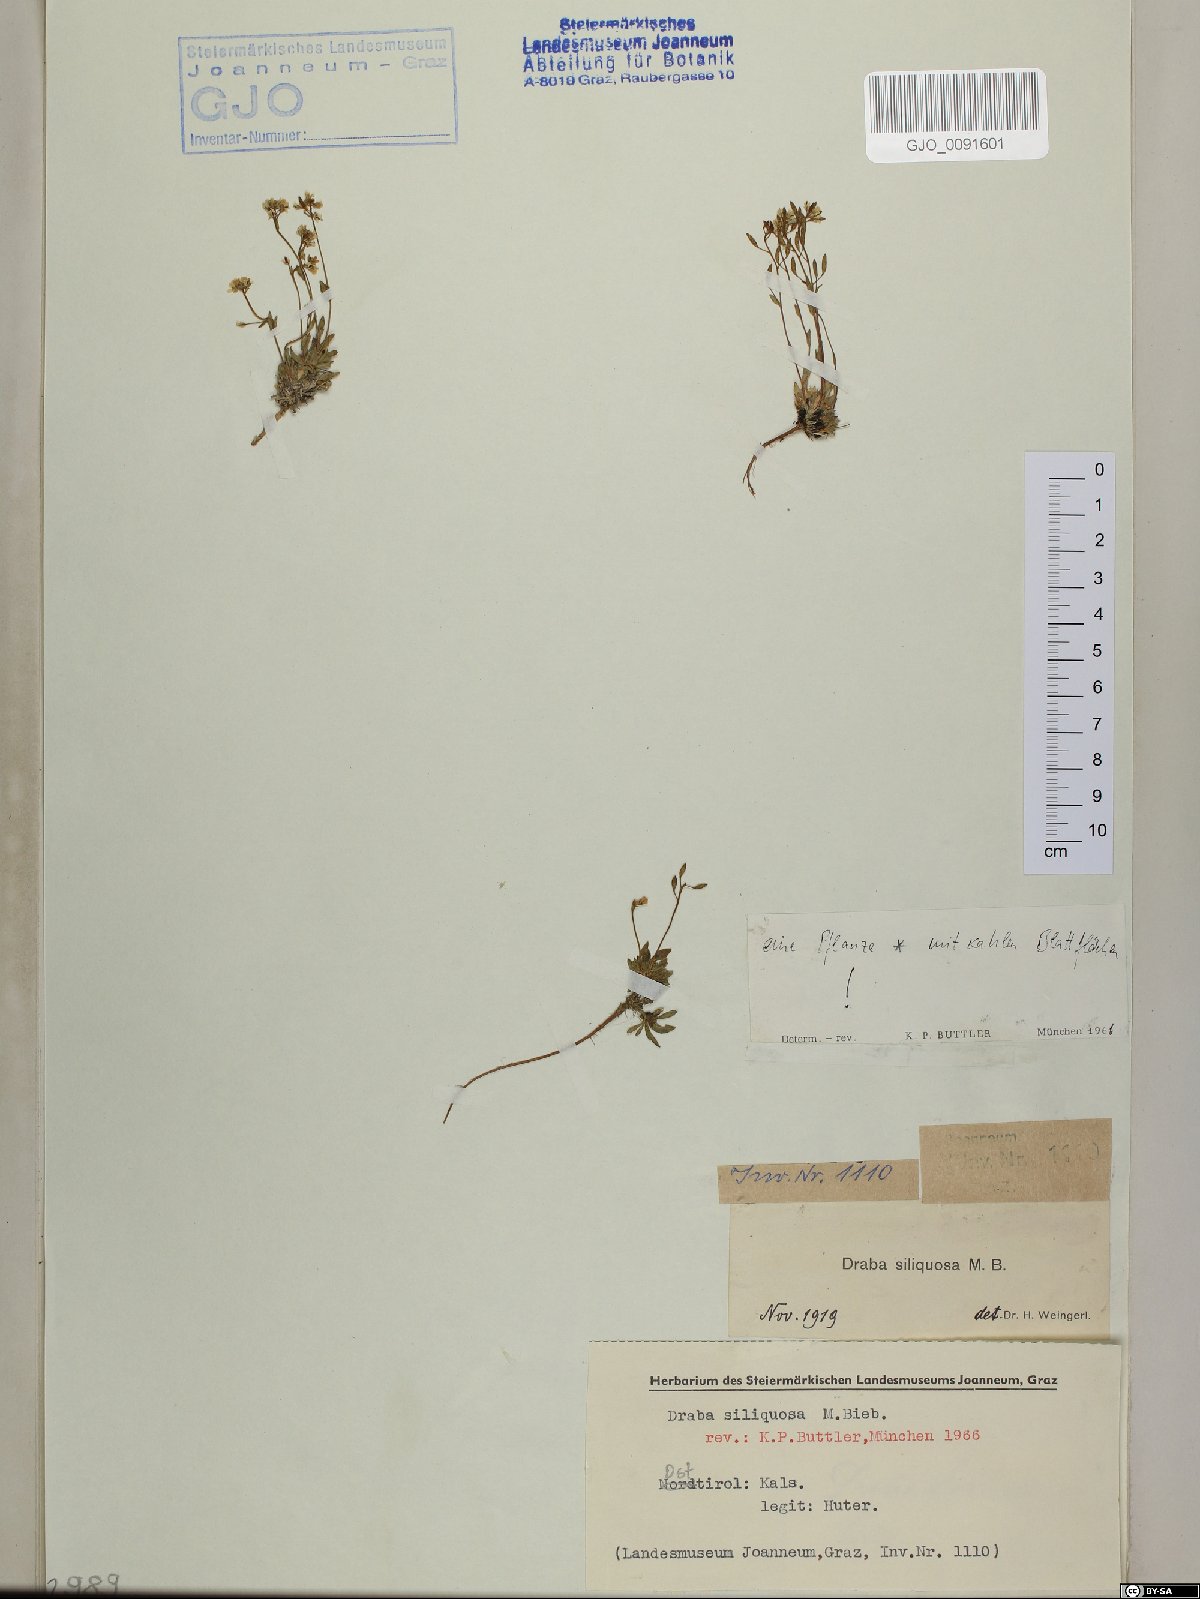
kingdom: Plantae
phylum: Tracheophyta
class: Magnoliopsida
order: Brassicales
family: Brassicaceae
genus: Draba
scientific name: Draba siliquosa
